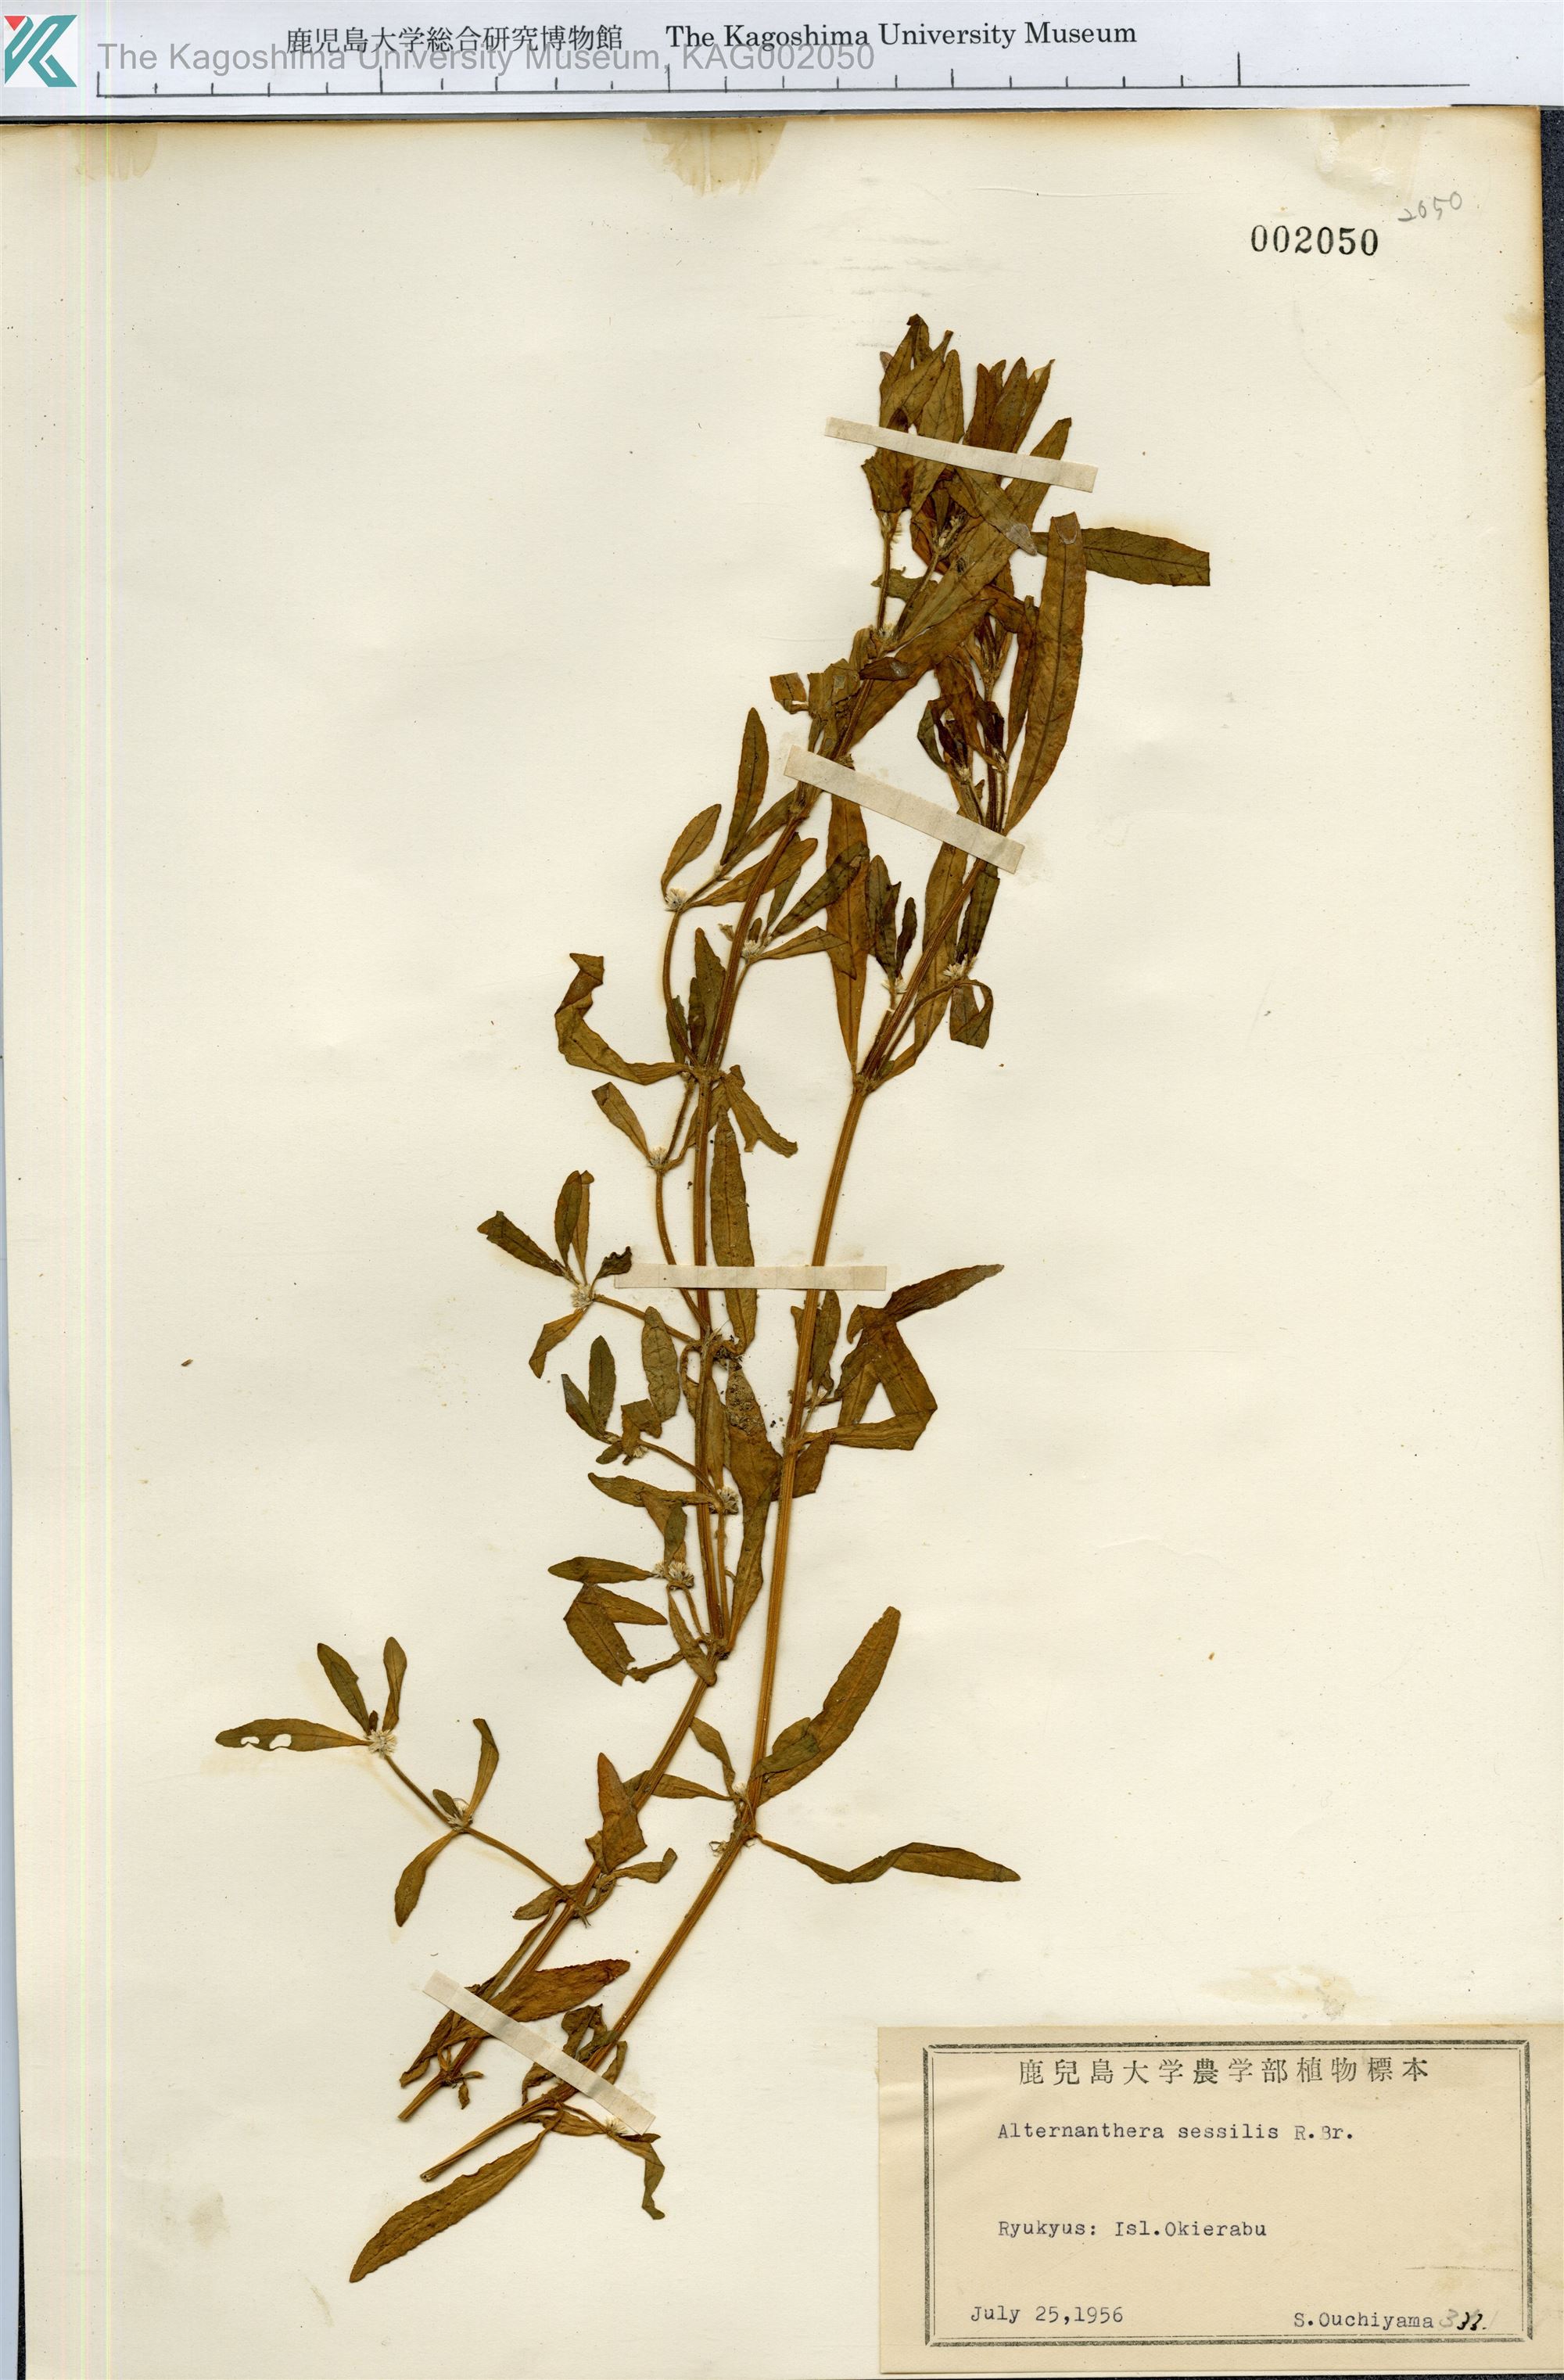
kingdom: Plantae
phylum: Tracheophyta
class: Magnoliopsida
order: Caryophyllales
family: Amaranthaceae
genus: Alternanthera
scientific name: Alternanthera sessilis
